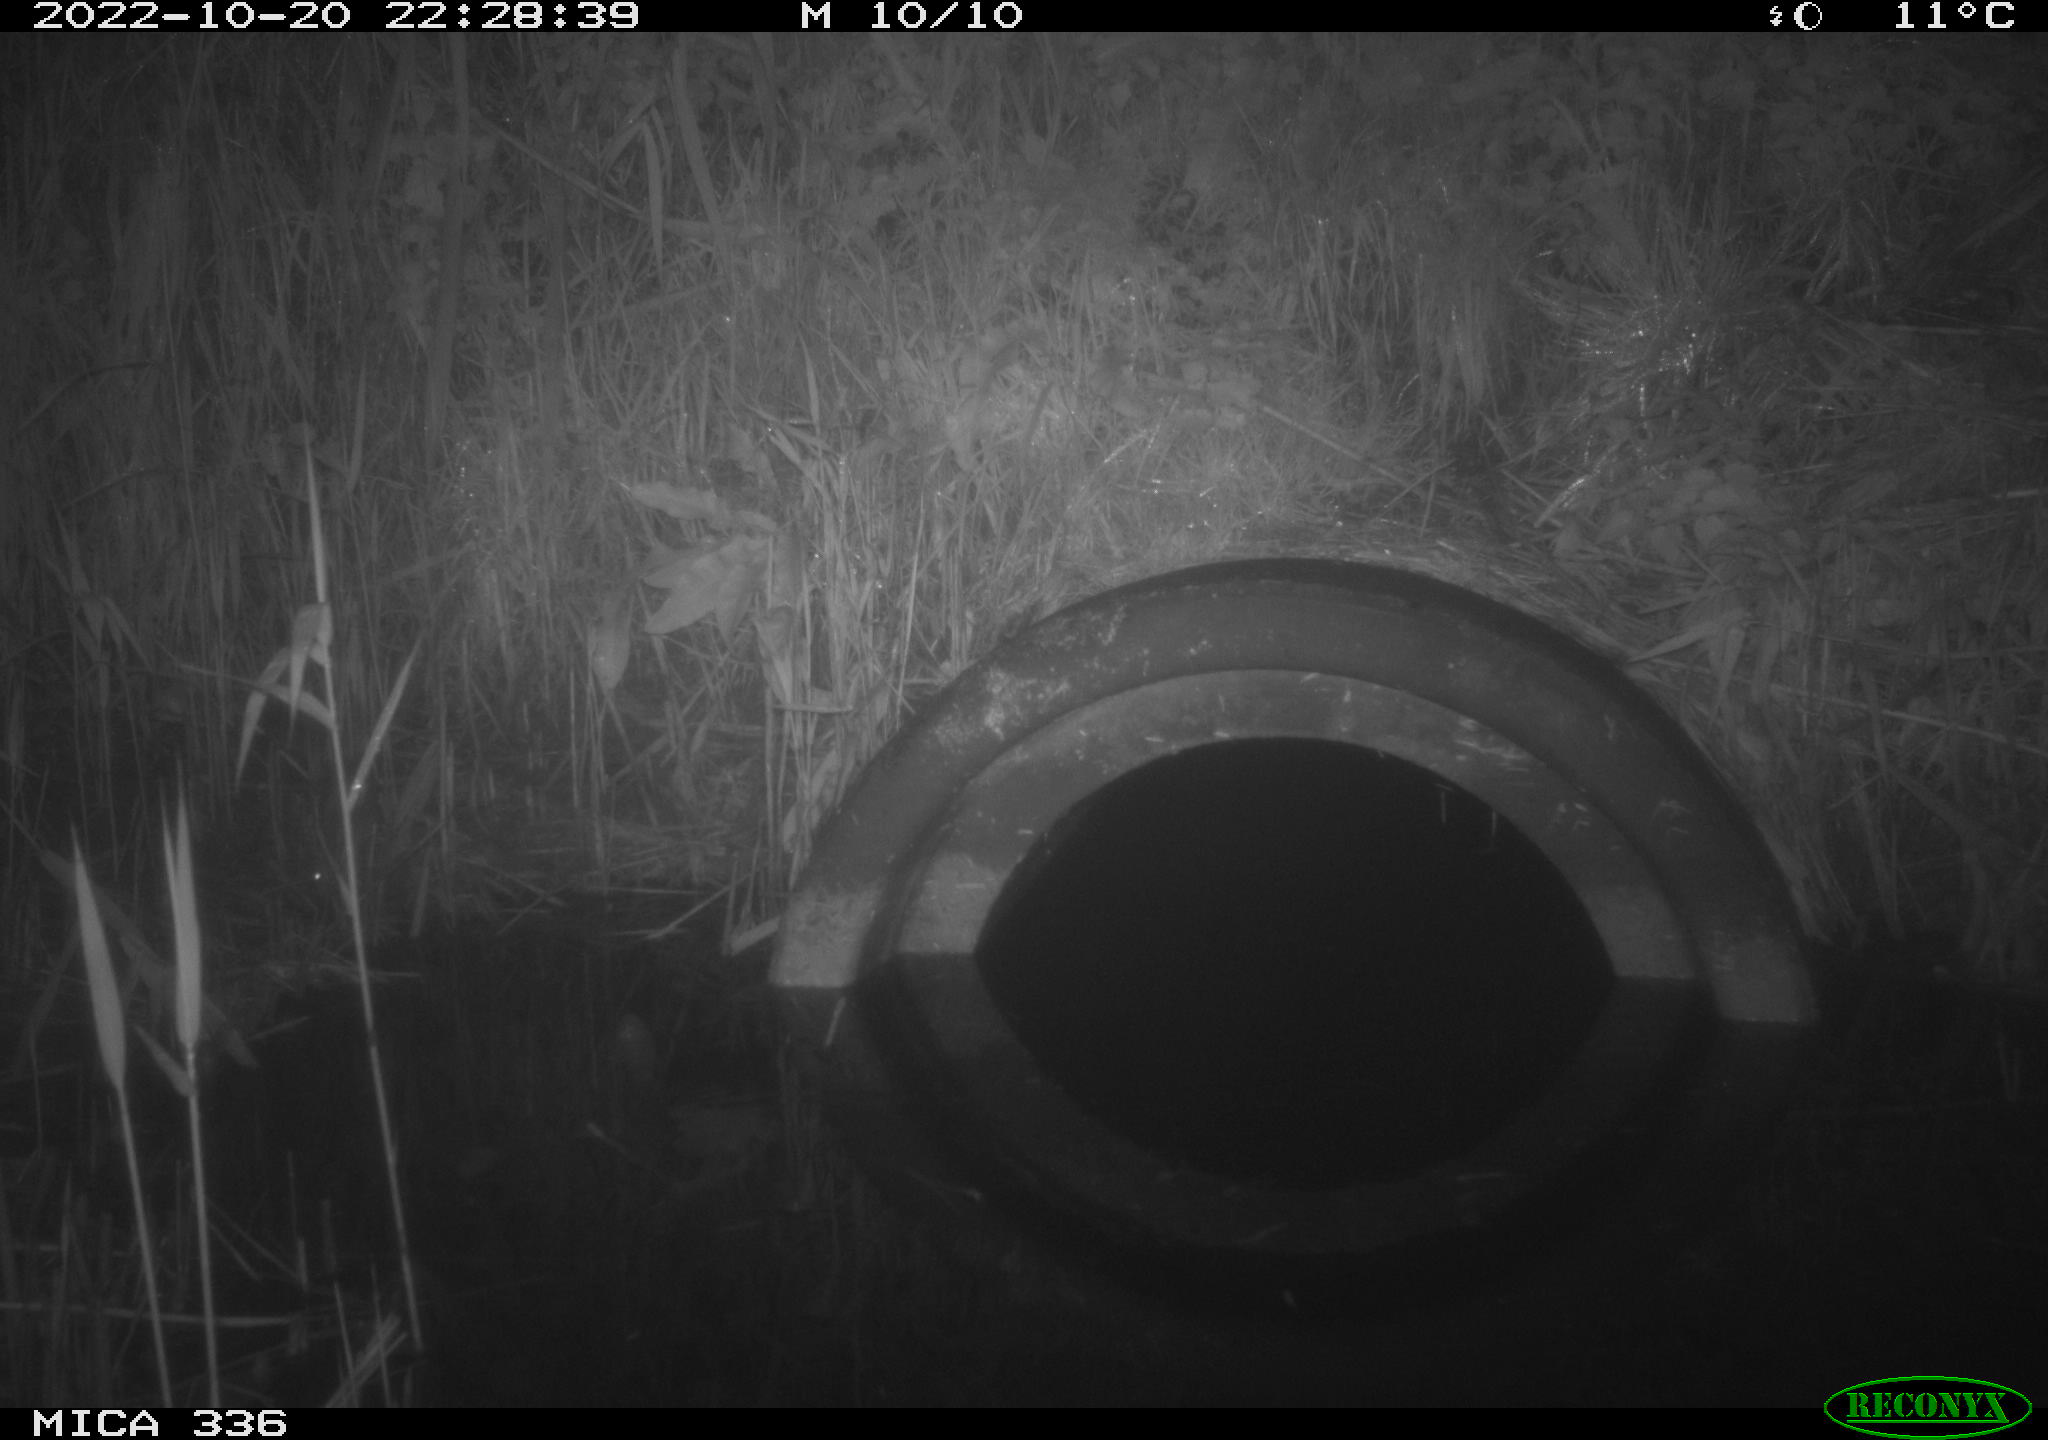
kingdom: Animalia
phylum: Chordata
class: Mammalia
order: Rodentia
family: Muridae
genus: Rattus
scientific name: Rattus norvegicus
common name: Brown rat
